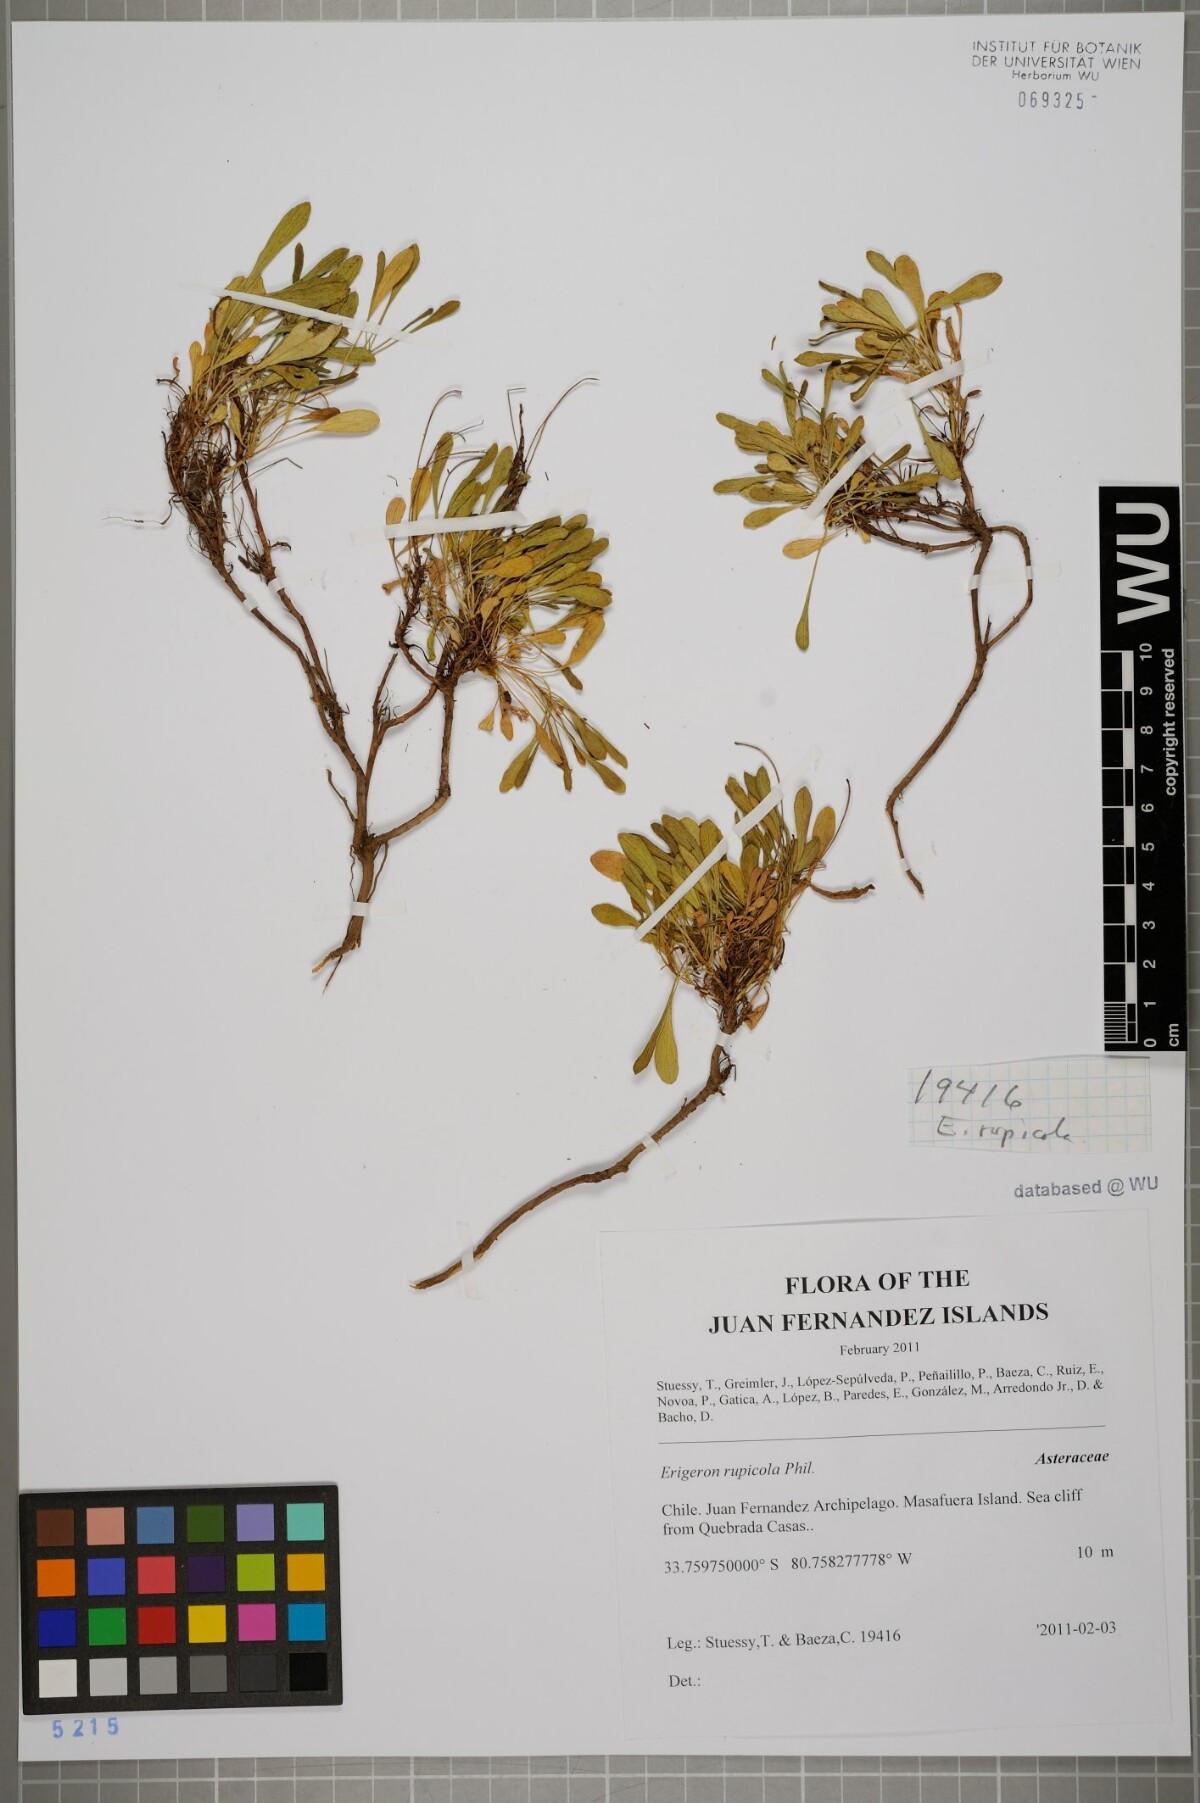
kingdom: Plantae
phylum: Tracheophyta
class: Magnoliopsida
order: Asterales
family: Asteraceae
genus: Erigeron
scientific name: Erigeron rupicola
